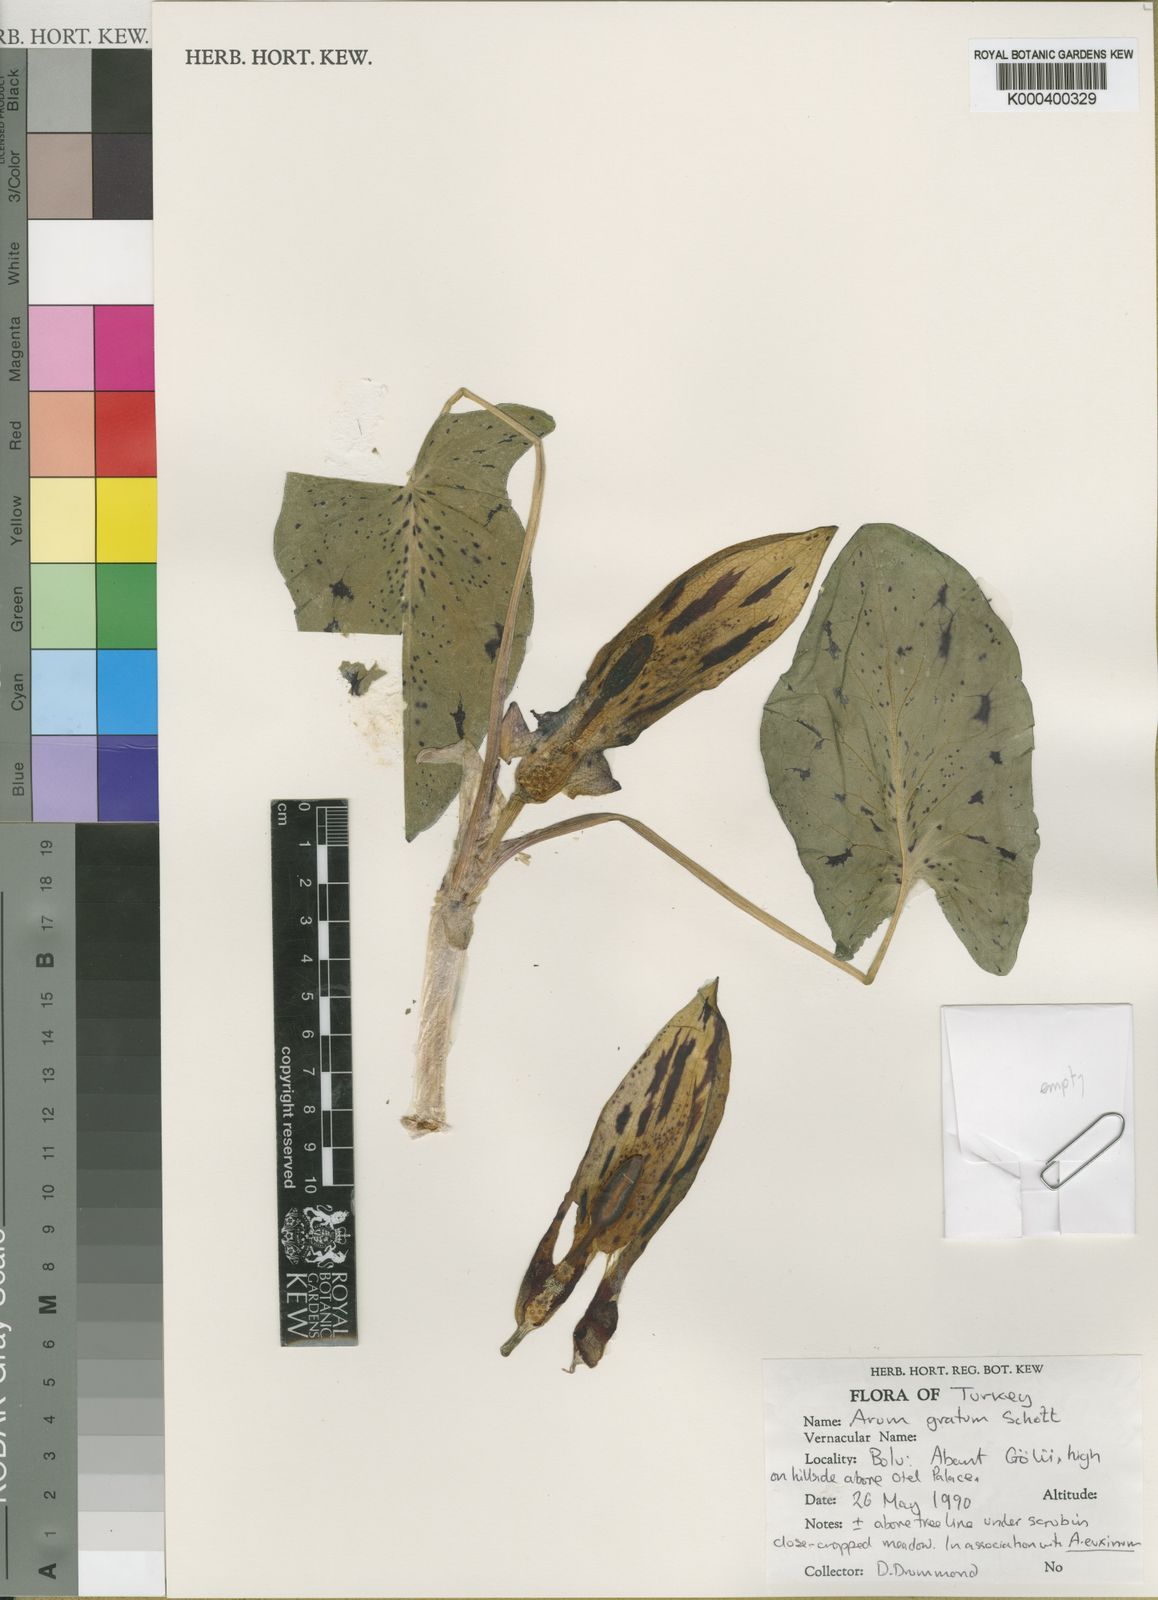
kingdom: Plantae
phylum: Tracheophyta
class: Liliopsida
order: Alismatales
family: Araceae
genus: Arum
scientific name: Arum gratum
